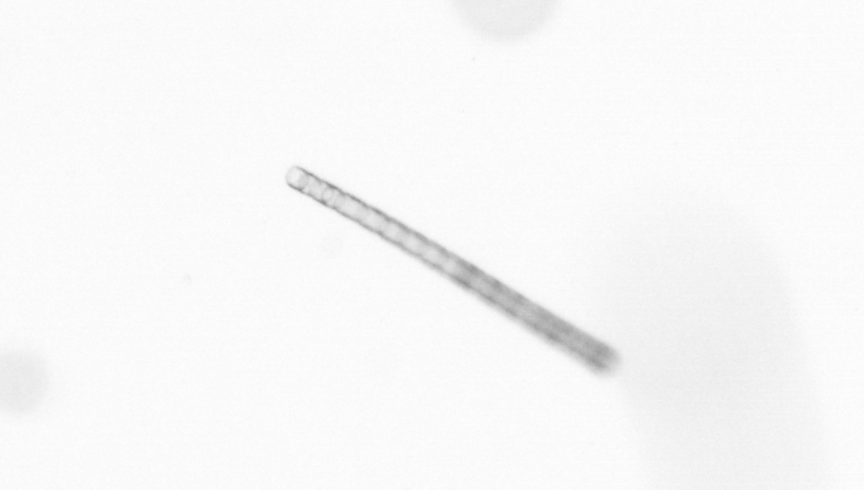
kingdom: Chromista
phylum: Ochrophyta
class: Bacillariophyceae
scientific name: Bacillariophyceae
